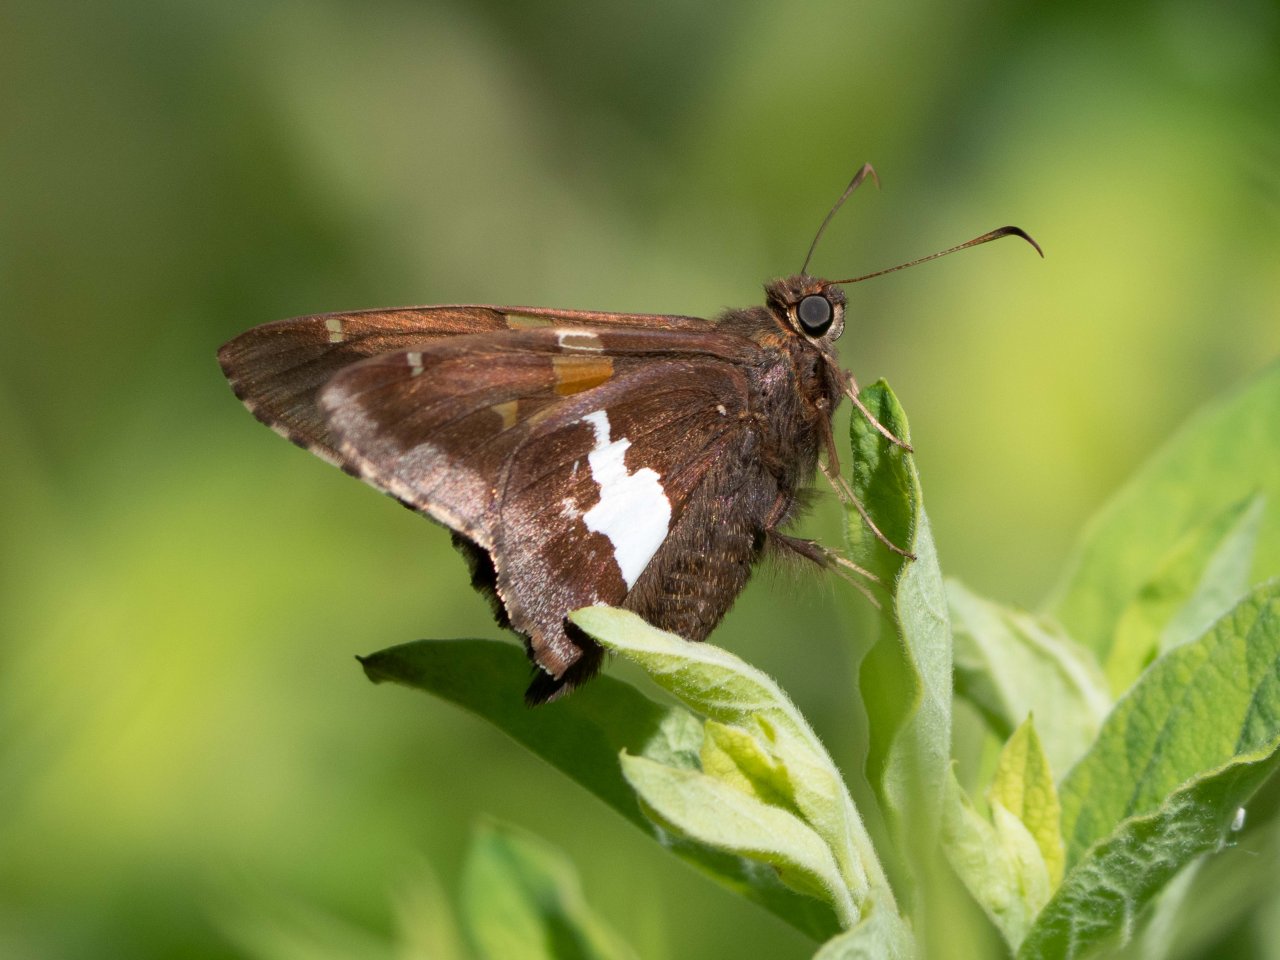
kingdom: Animalia
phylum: Arthropoda
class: Insecta
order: Lepidoptera
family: Hesperiidae
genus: Epargyreus
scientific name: Epargyreus clarus
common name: Silver-spotted Skipper
